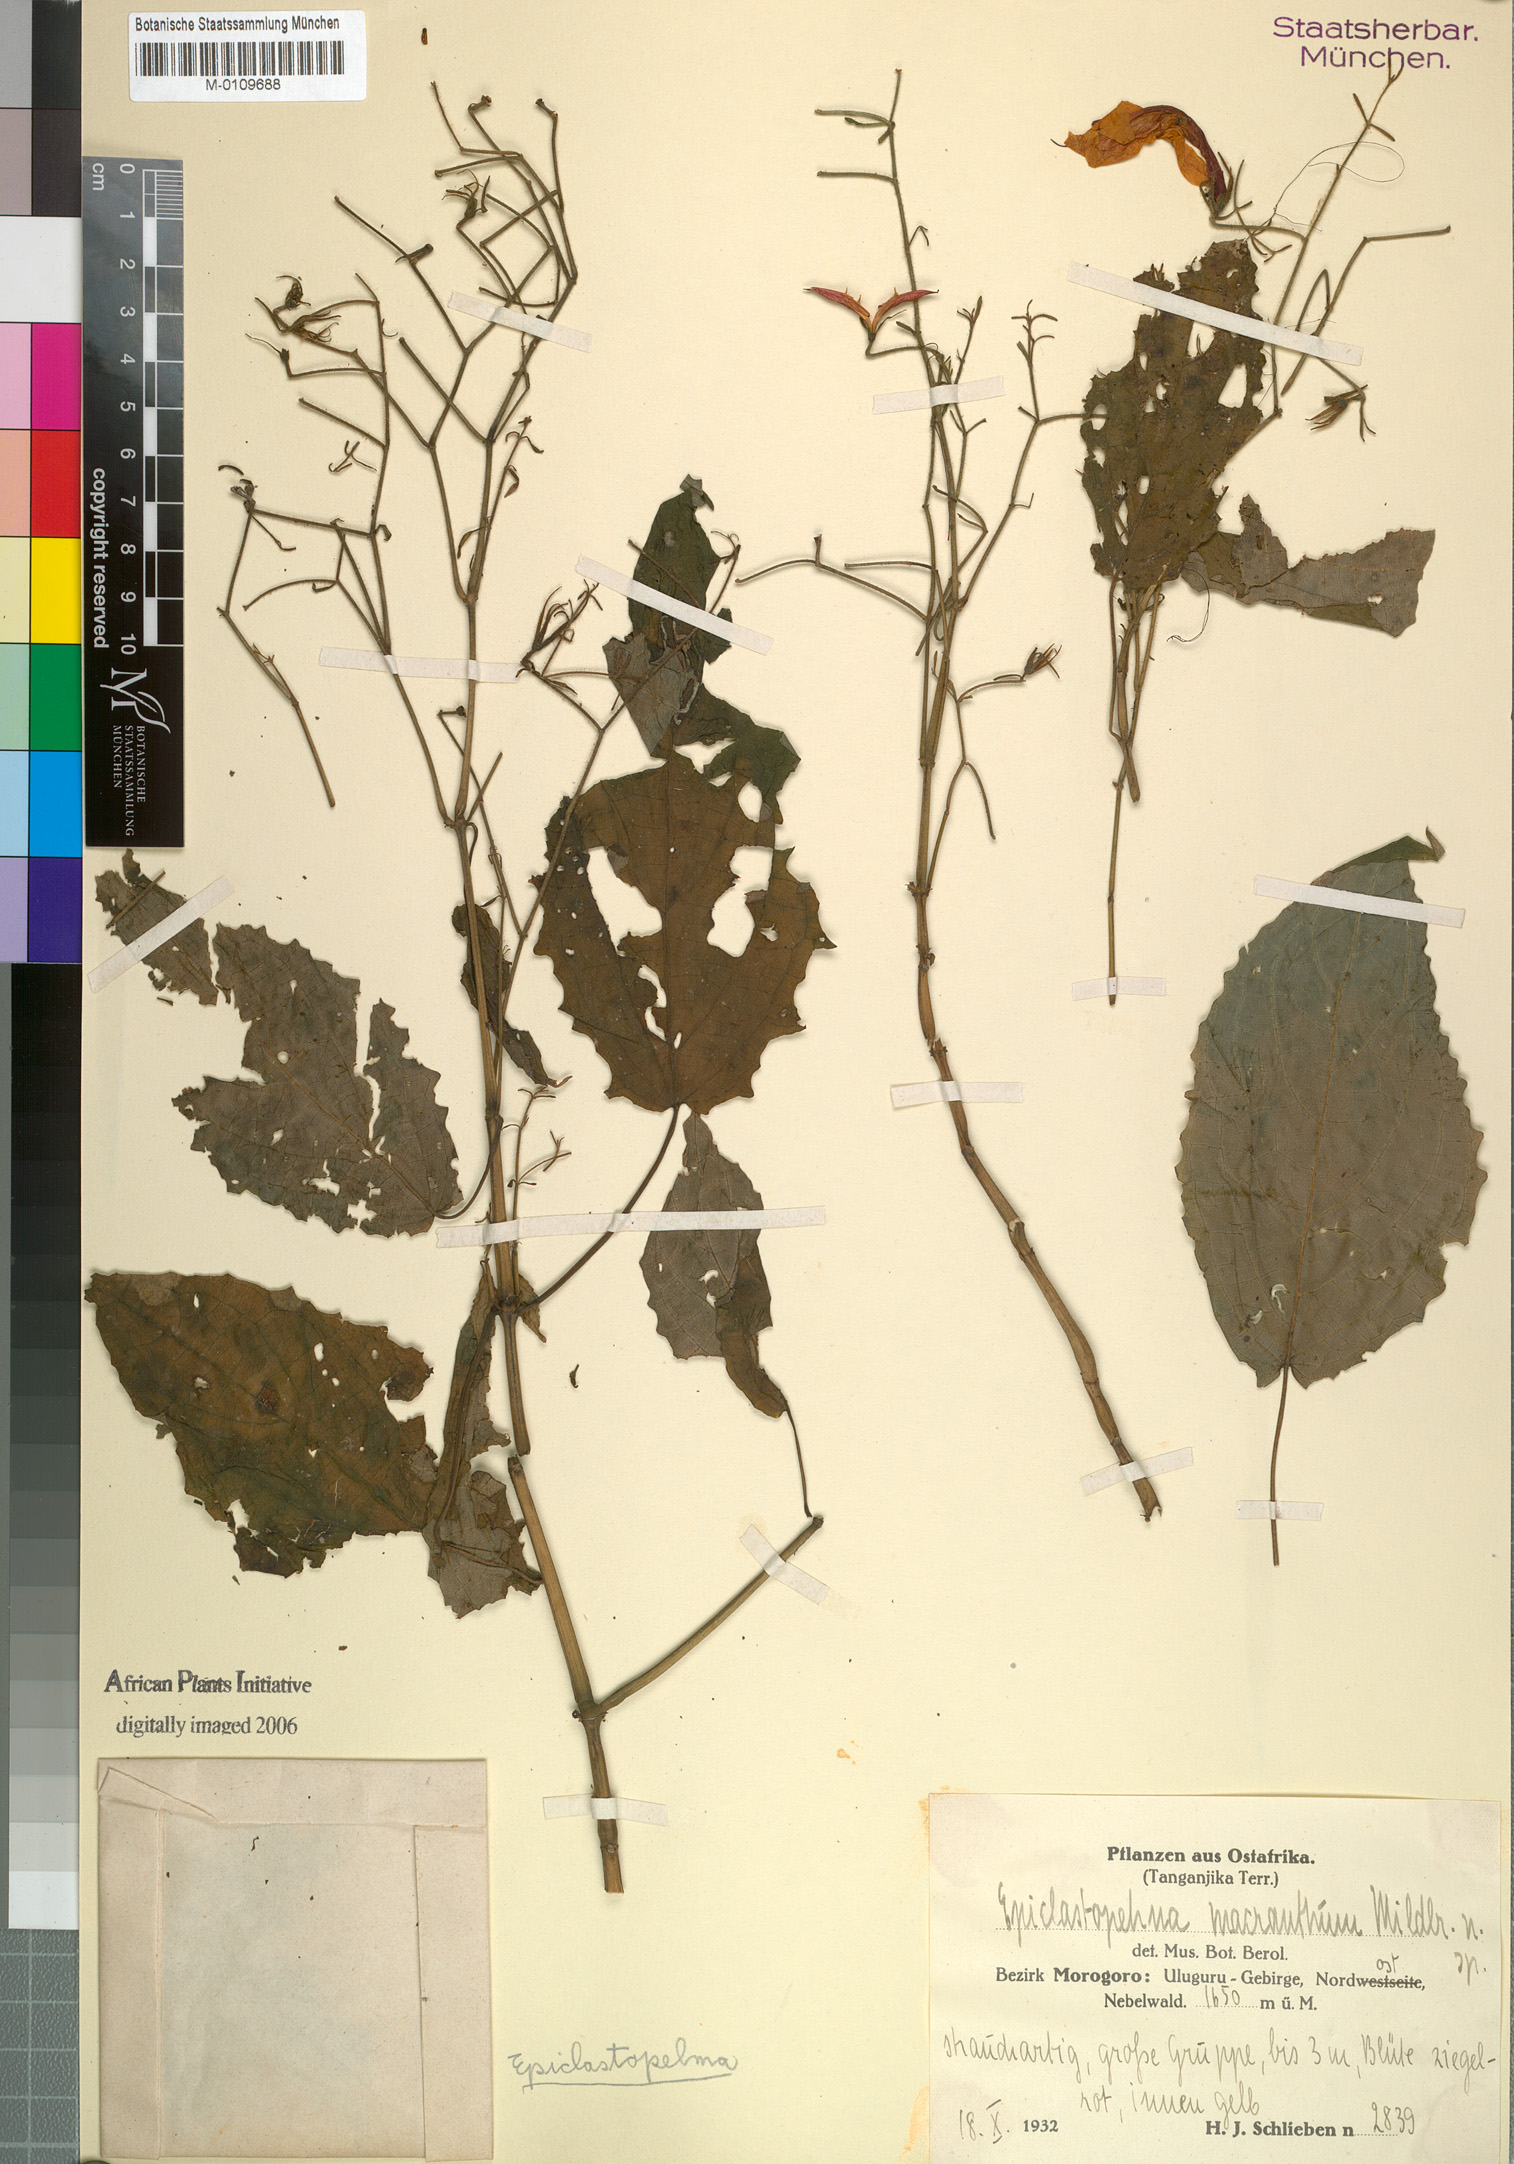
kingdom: Plantae
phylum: Tracheophyta
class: Magnoliopsida
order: Lamiales
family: Acanthaceae
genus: Mimulopsis
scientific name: Mimulopsis macrantha
